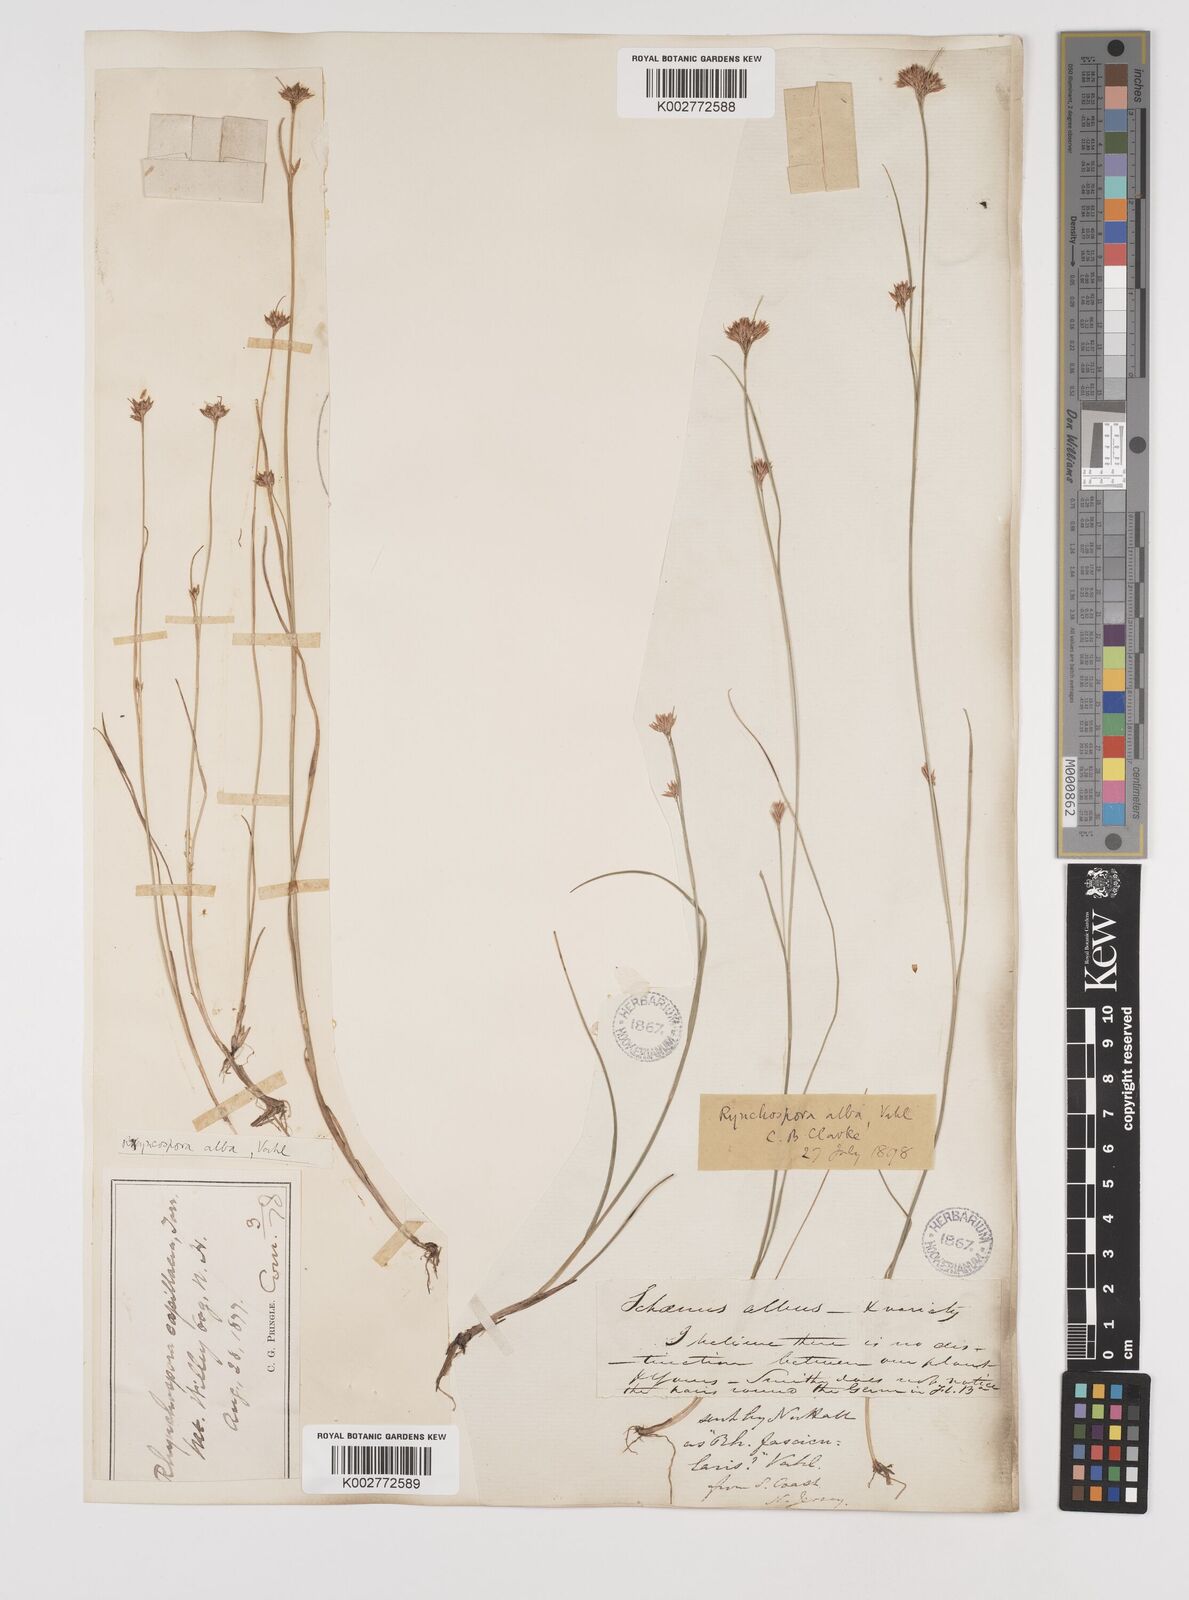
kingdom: Plantae
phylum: Tracheophyta
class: Liliopsida
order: Poales
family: Cyperaceae
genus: Rhynchospora
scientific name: Rhynchospora alba
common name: White beak-sedge
